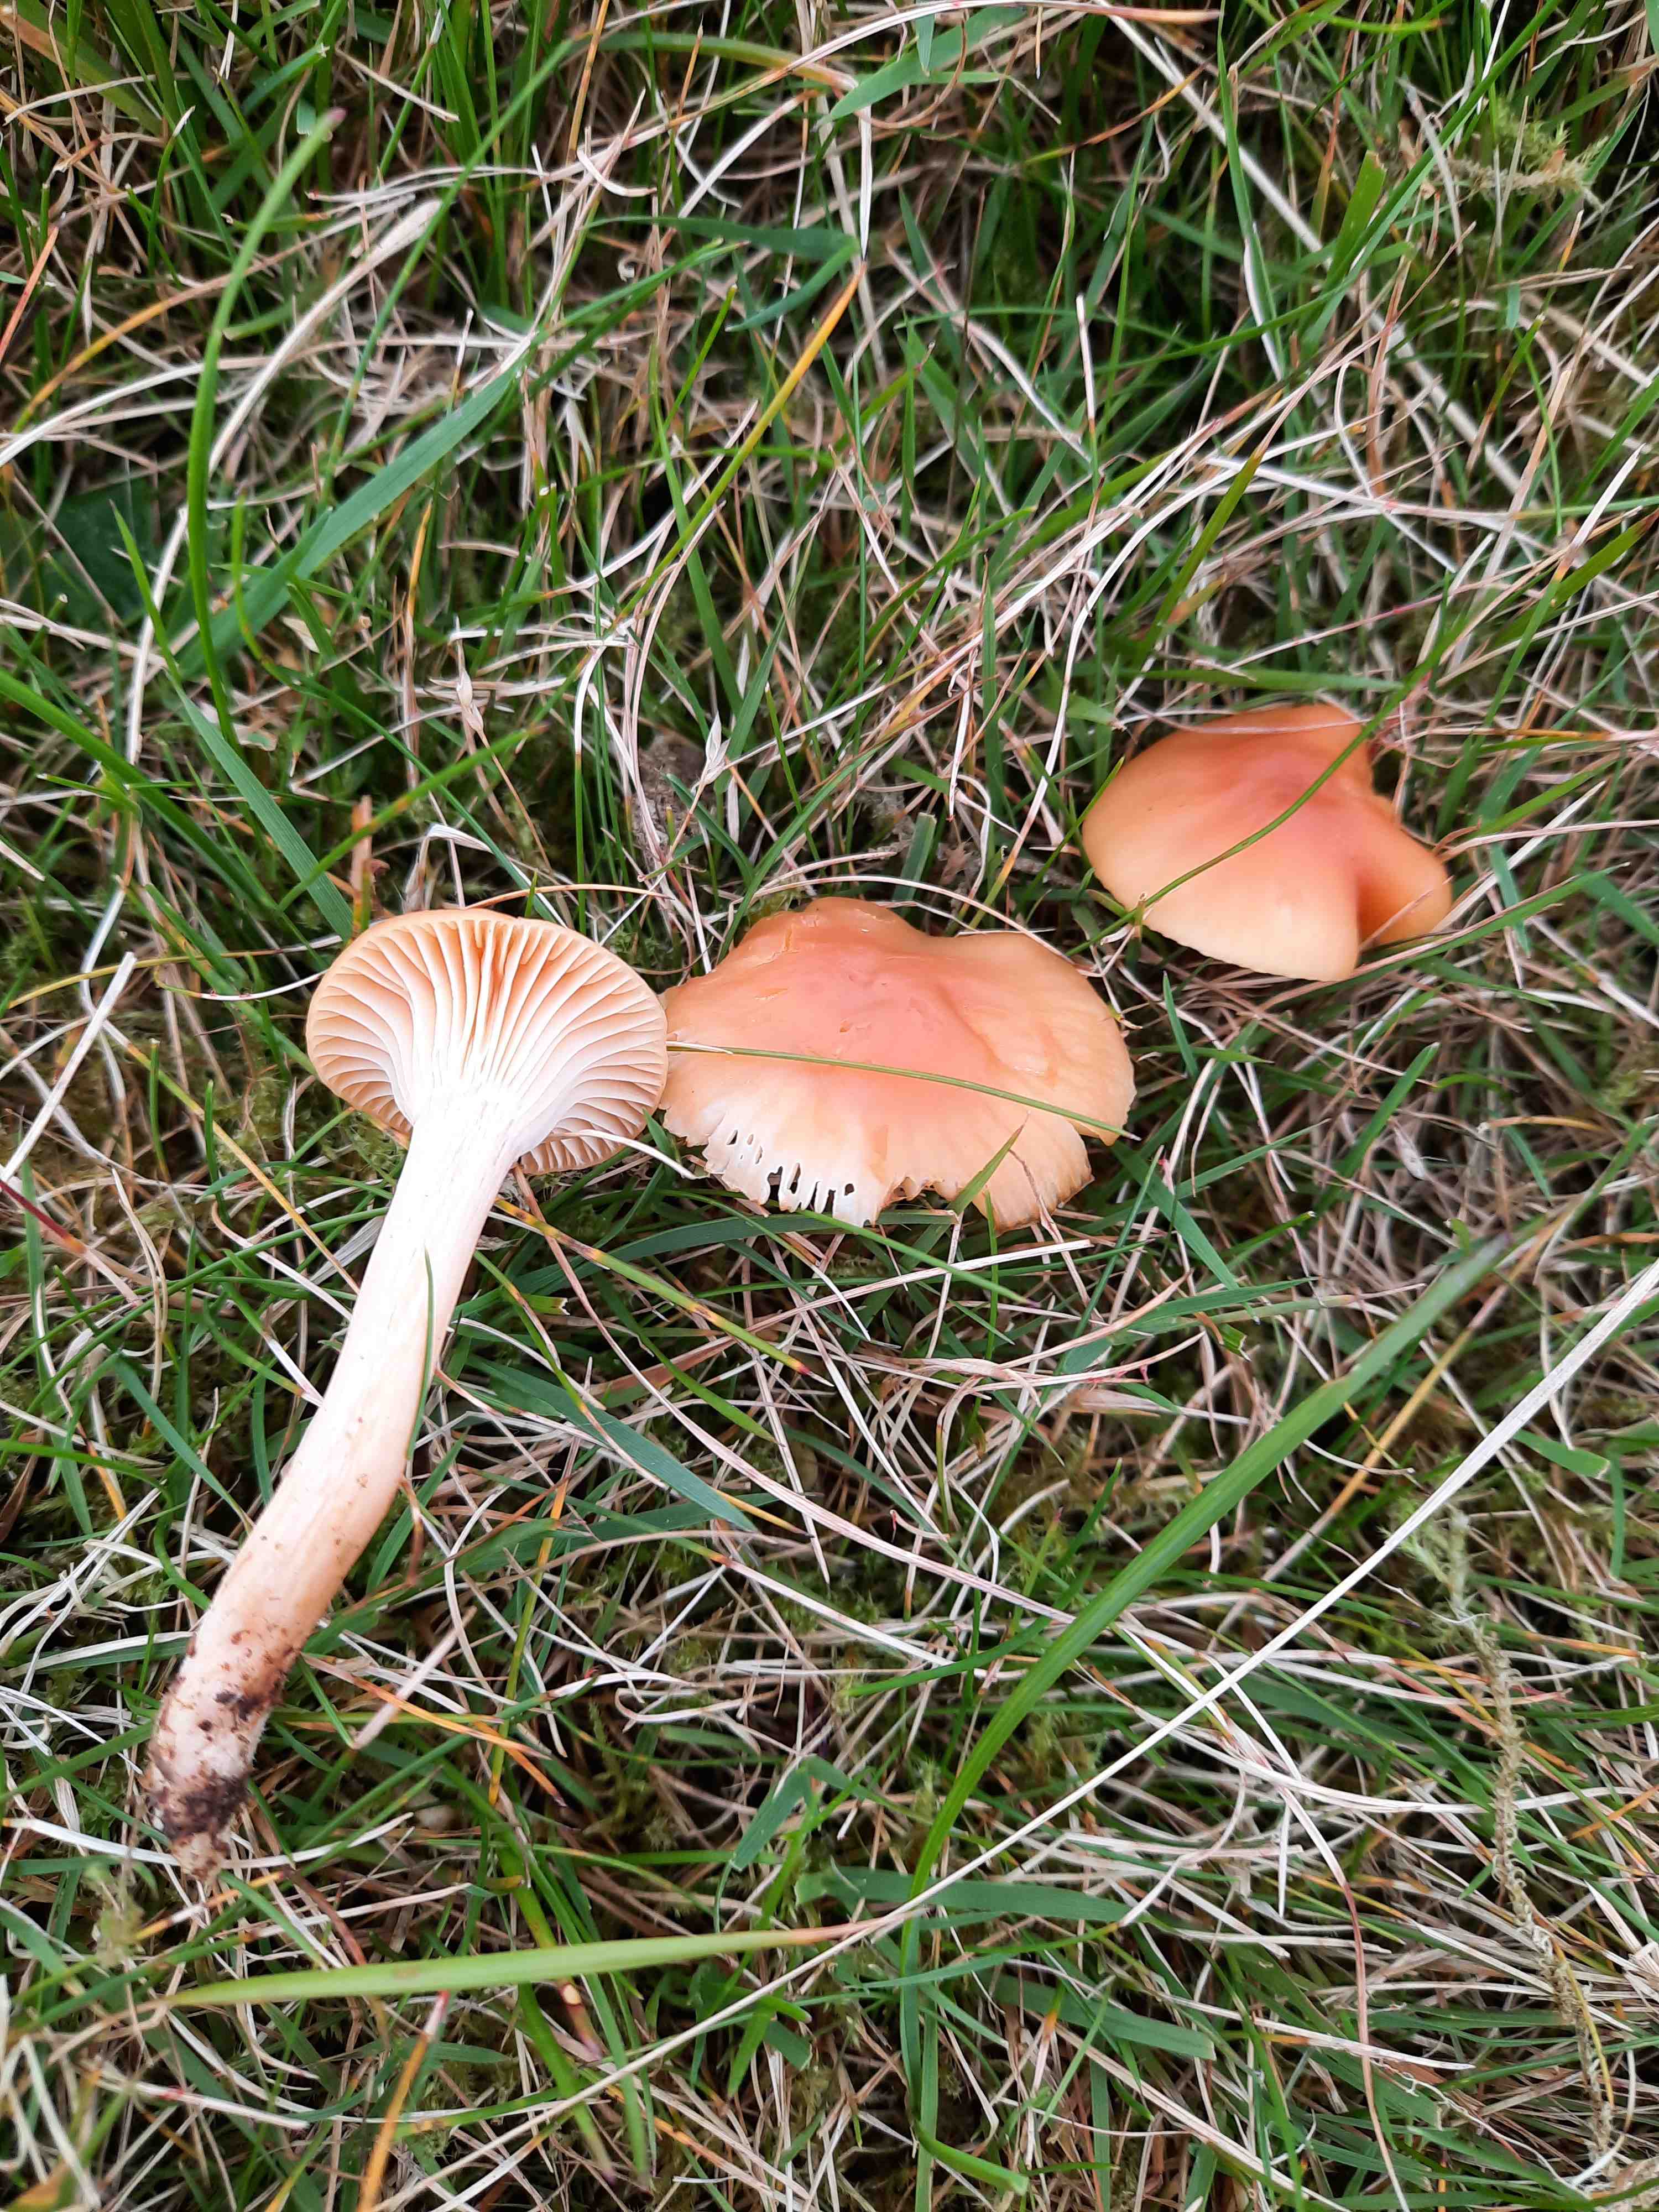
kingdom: Fungi
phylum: Basidiomycota
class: Agaricomycetes
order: Agaricales
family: Hygrophoraceae
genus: Cuphophyllus
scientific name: Cuphophyllus pratensis
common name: eng-vokshat
